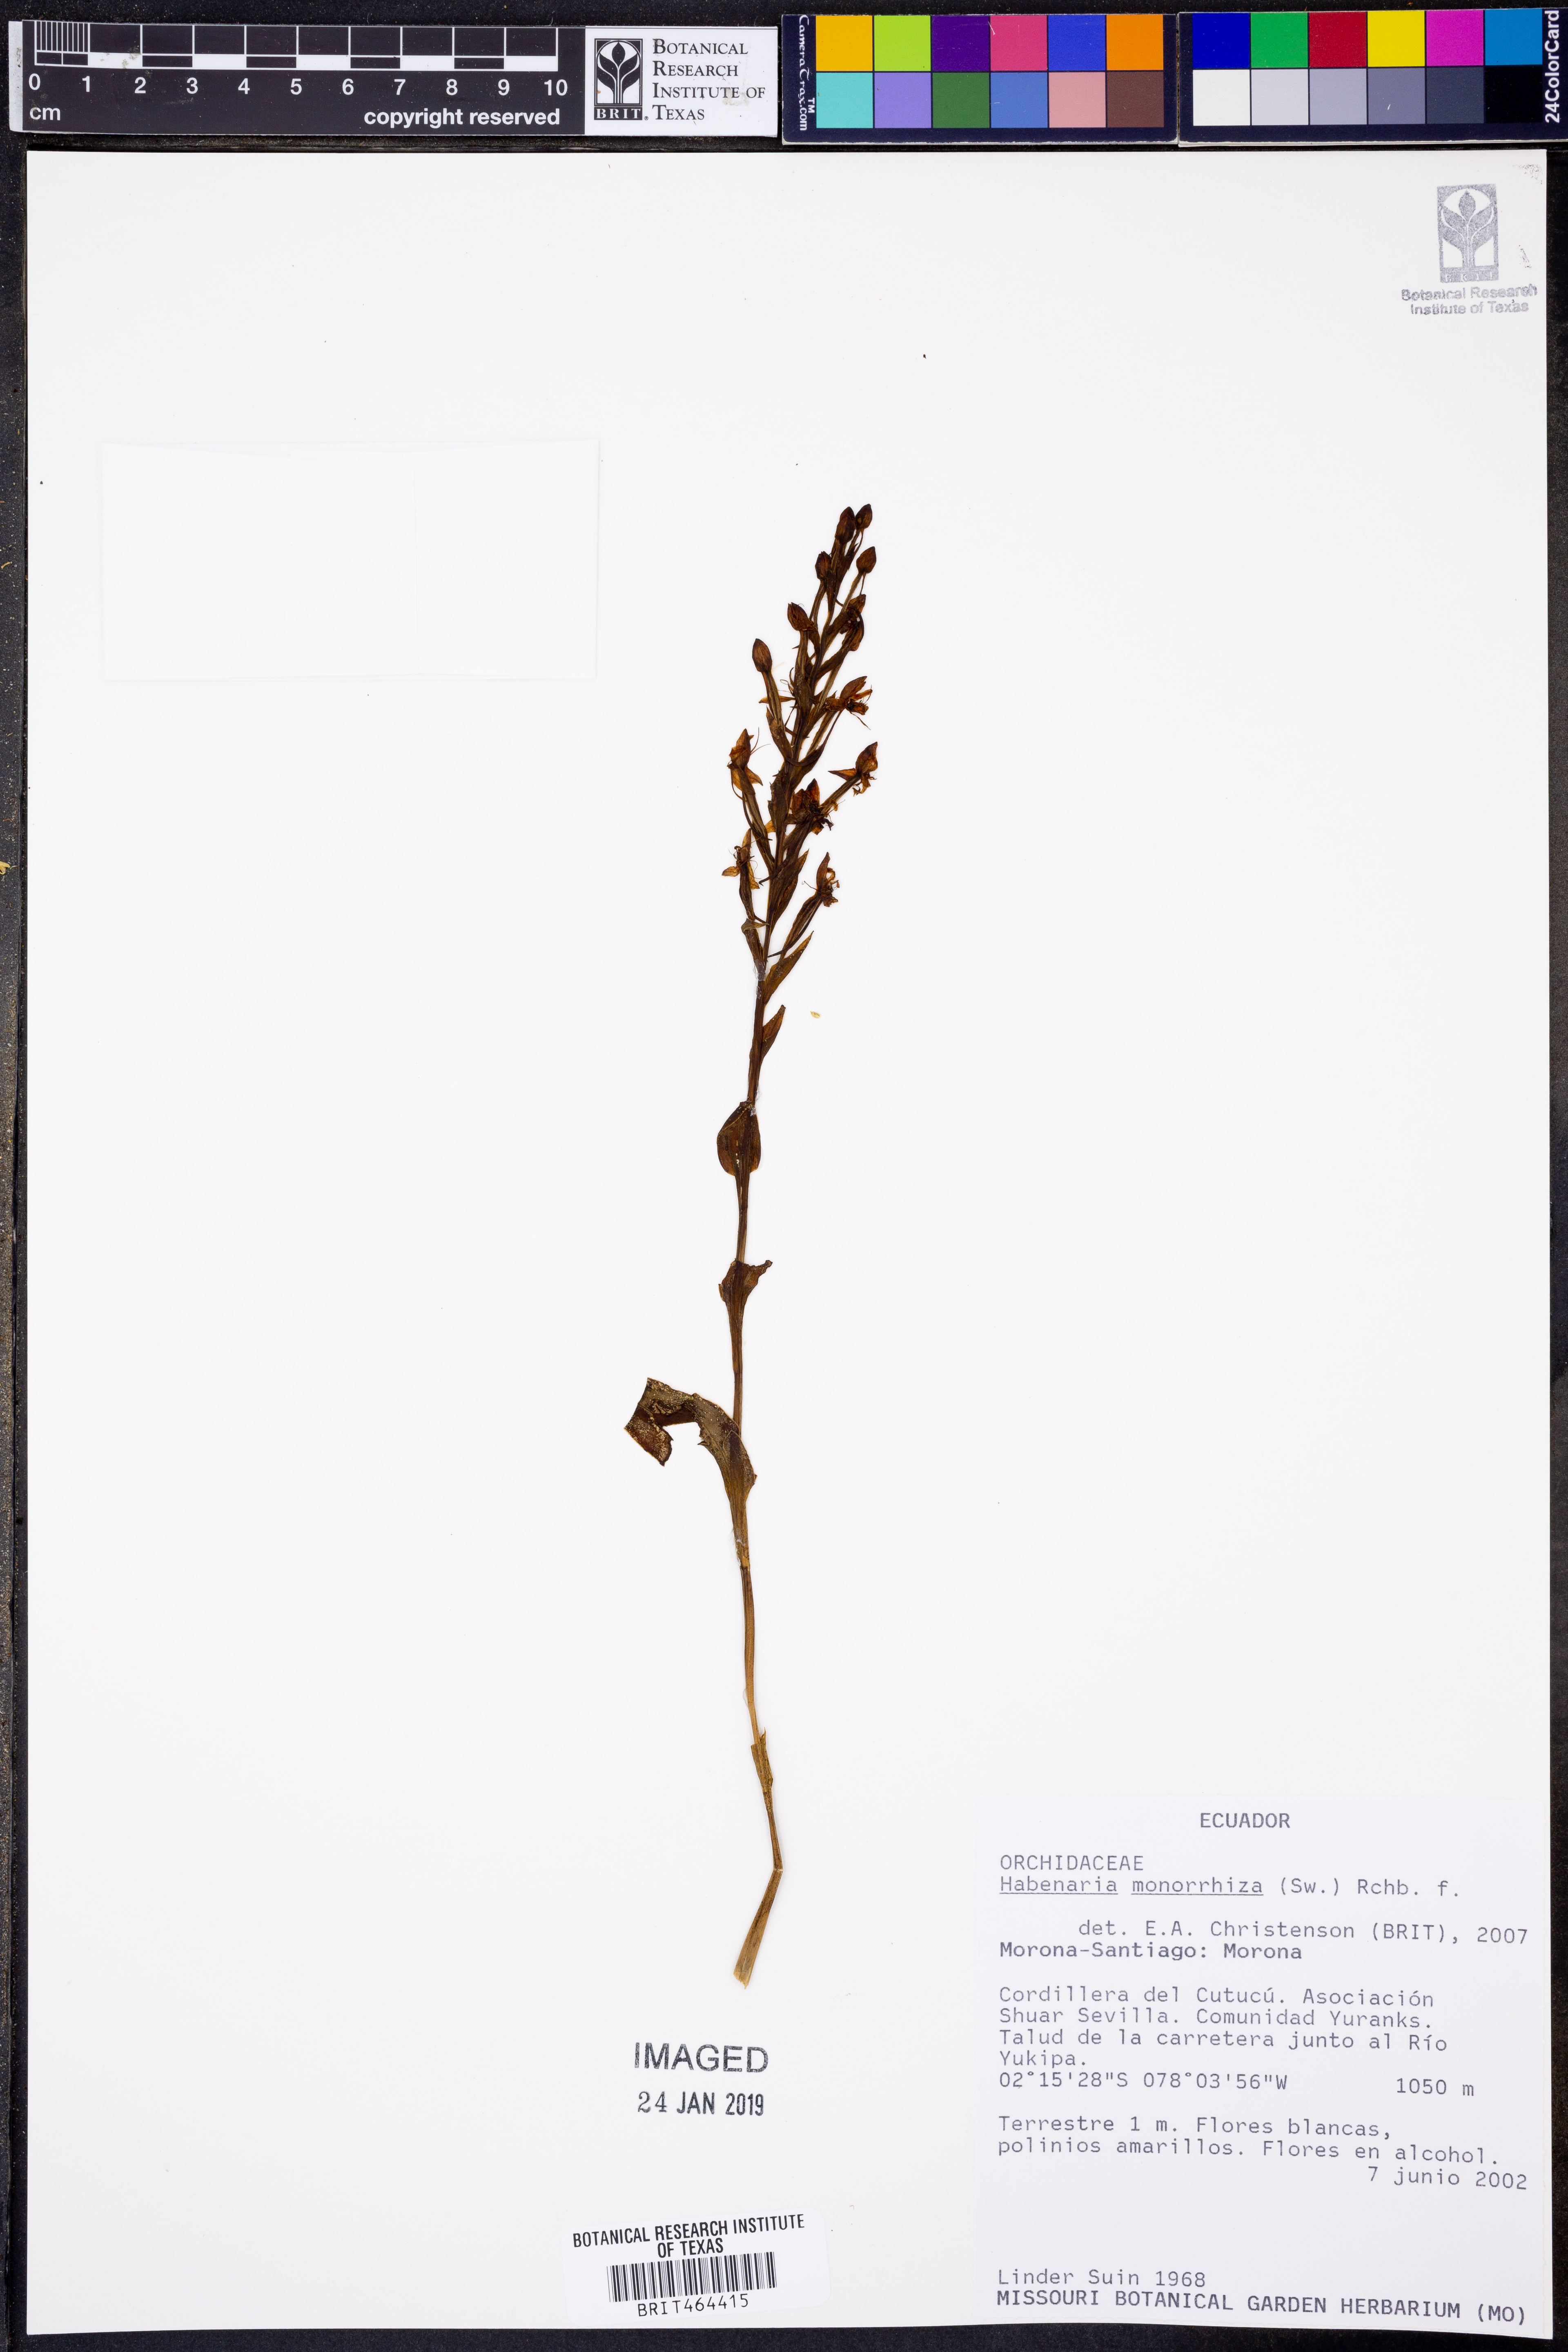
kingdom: Plantae
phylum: Tracheophyta
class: Liliopsida
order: Asparagales
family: Orchidaceae
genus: Habenaria
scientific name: Habenaria monorrhiza
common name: Tropical bog orchid
